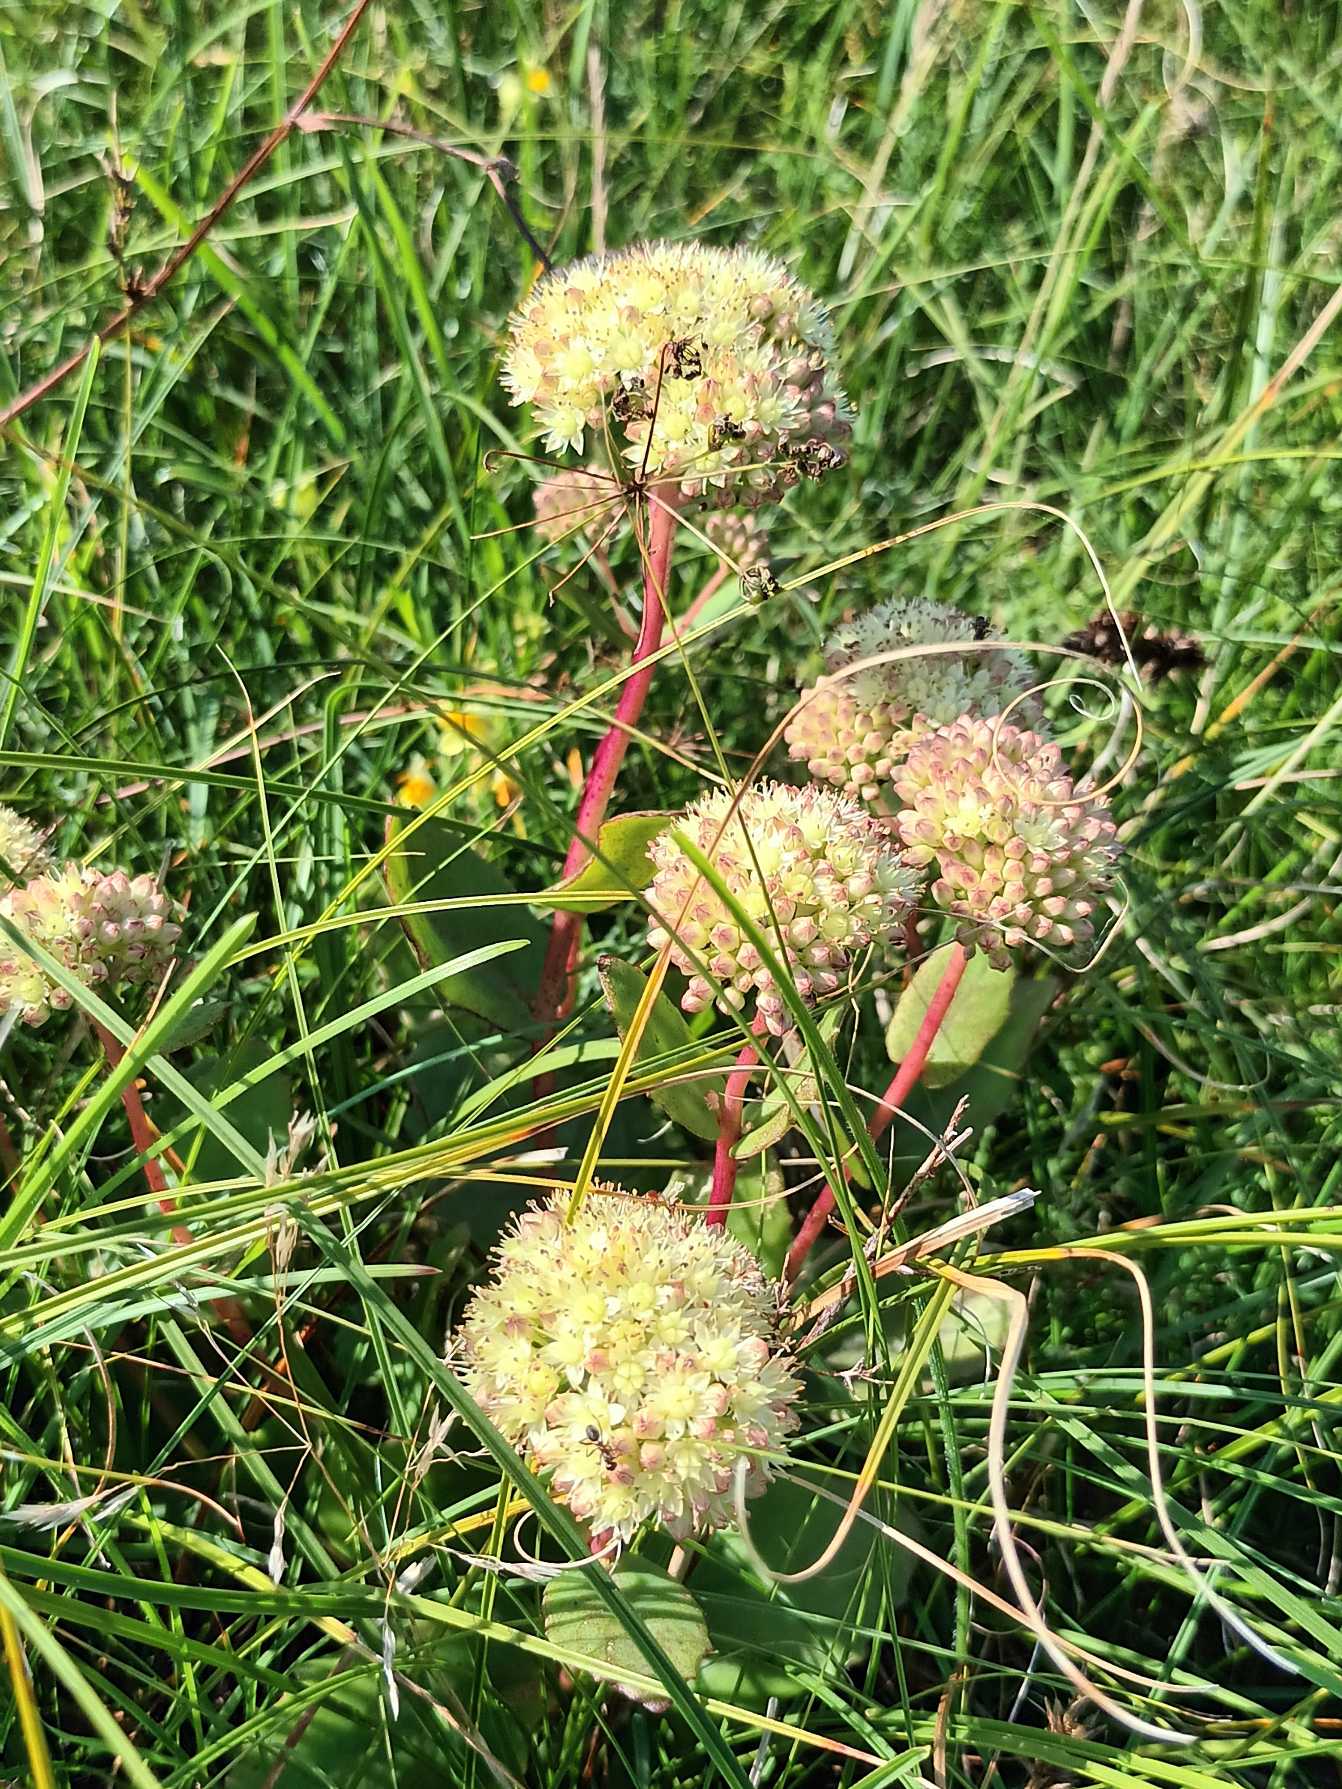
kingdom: Plantae
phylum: Tracheophyta
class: Magnoliopsida
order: Saxifragales
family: Crassulaceae
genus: Hylotelephium
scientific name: Hylotelephium maximum
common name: Almindelig sankthansurt
